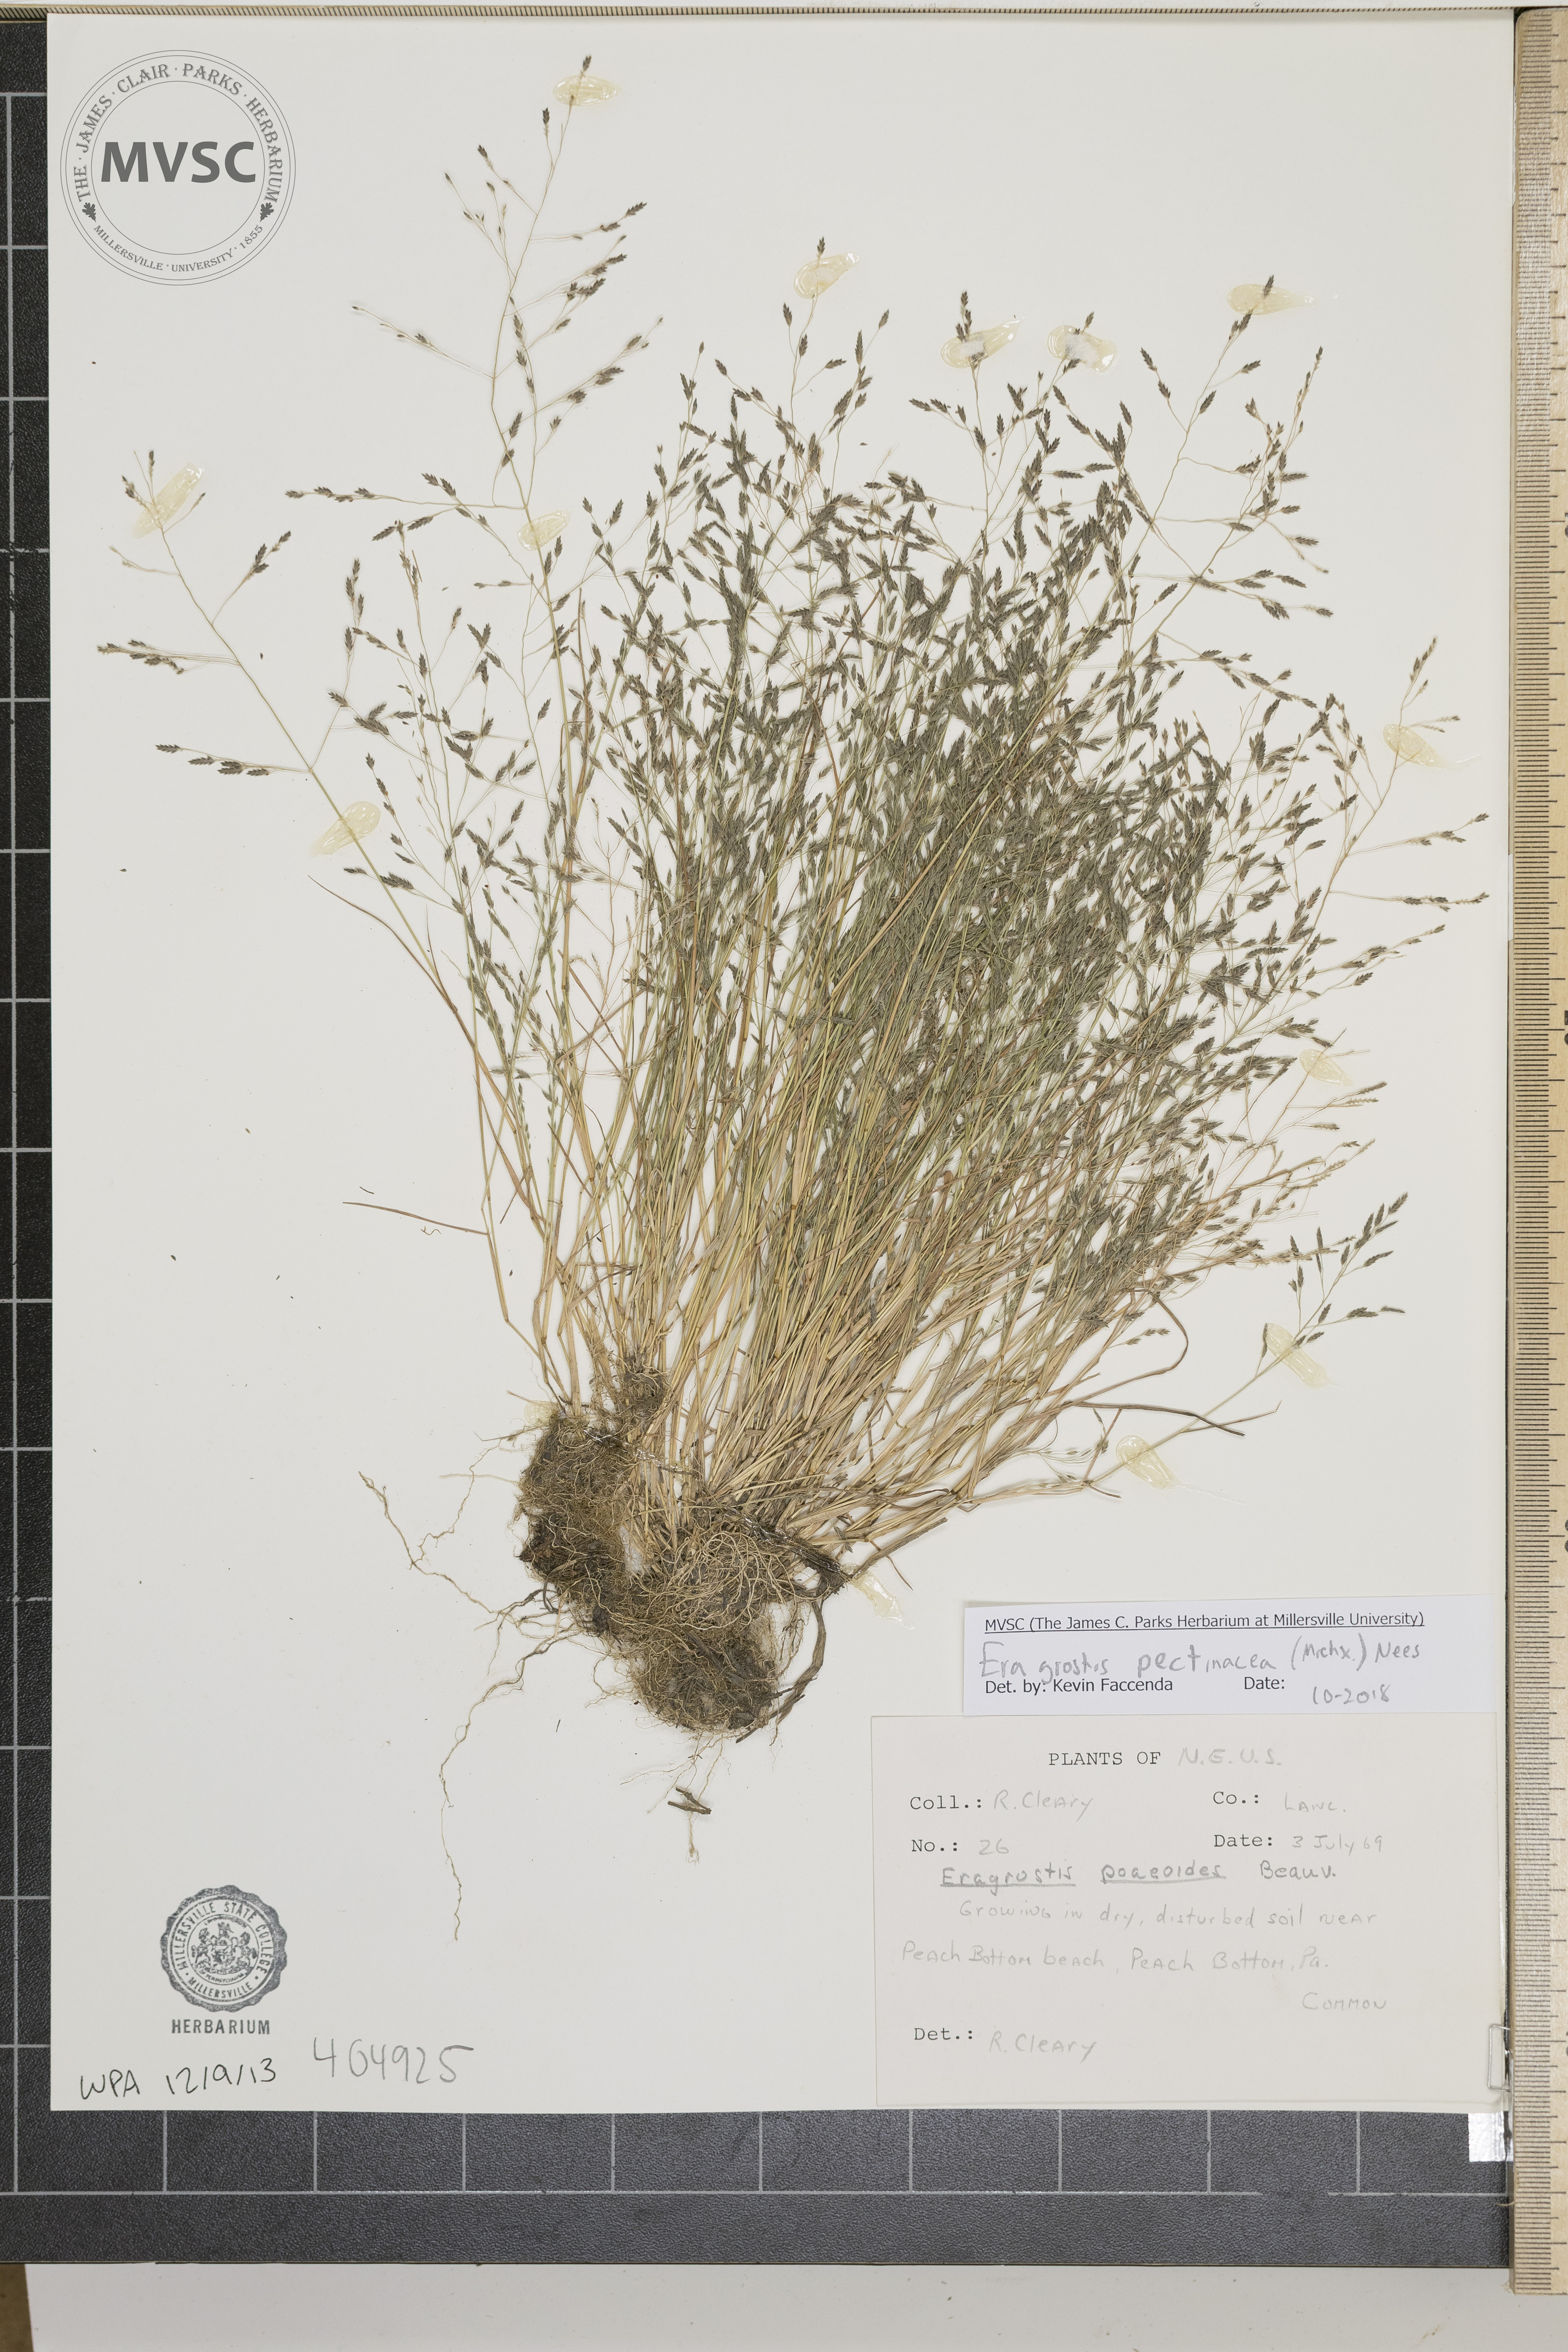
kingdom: Plantae
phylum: Tracheophyta
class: Liliopsida
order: Poales
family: Poaceae
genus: Eragrostis
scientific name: Eragrostis pectinacea
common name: Tufted lovegrass
